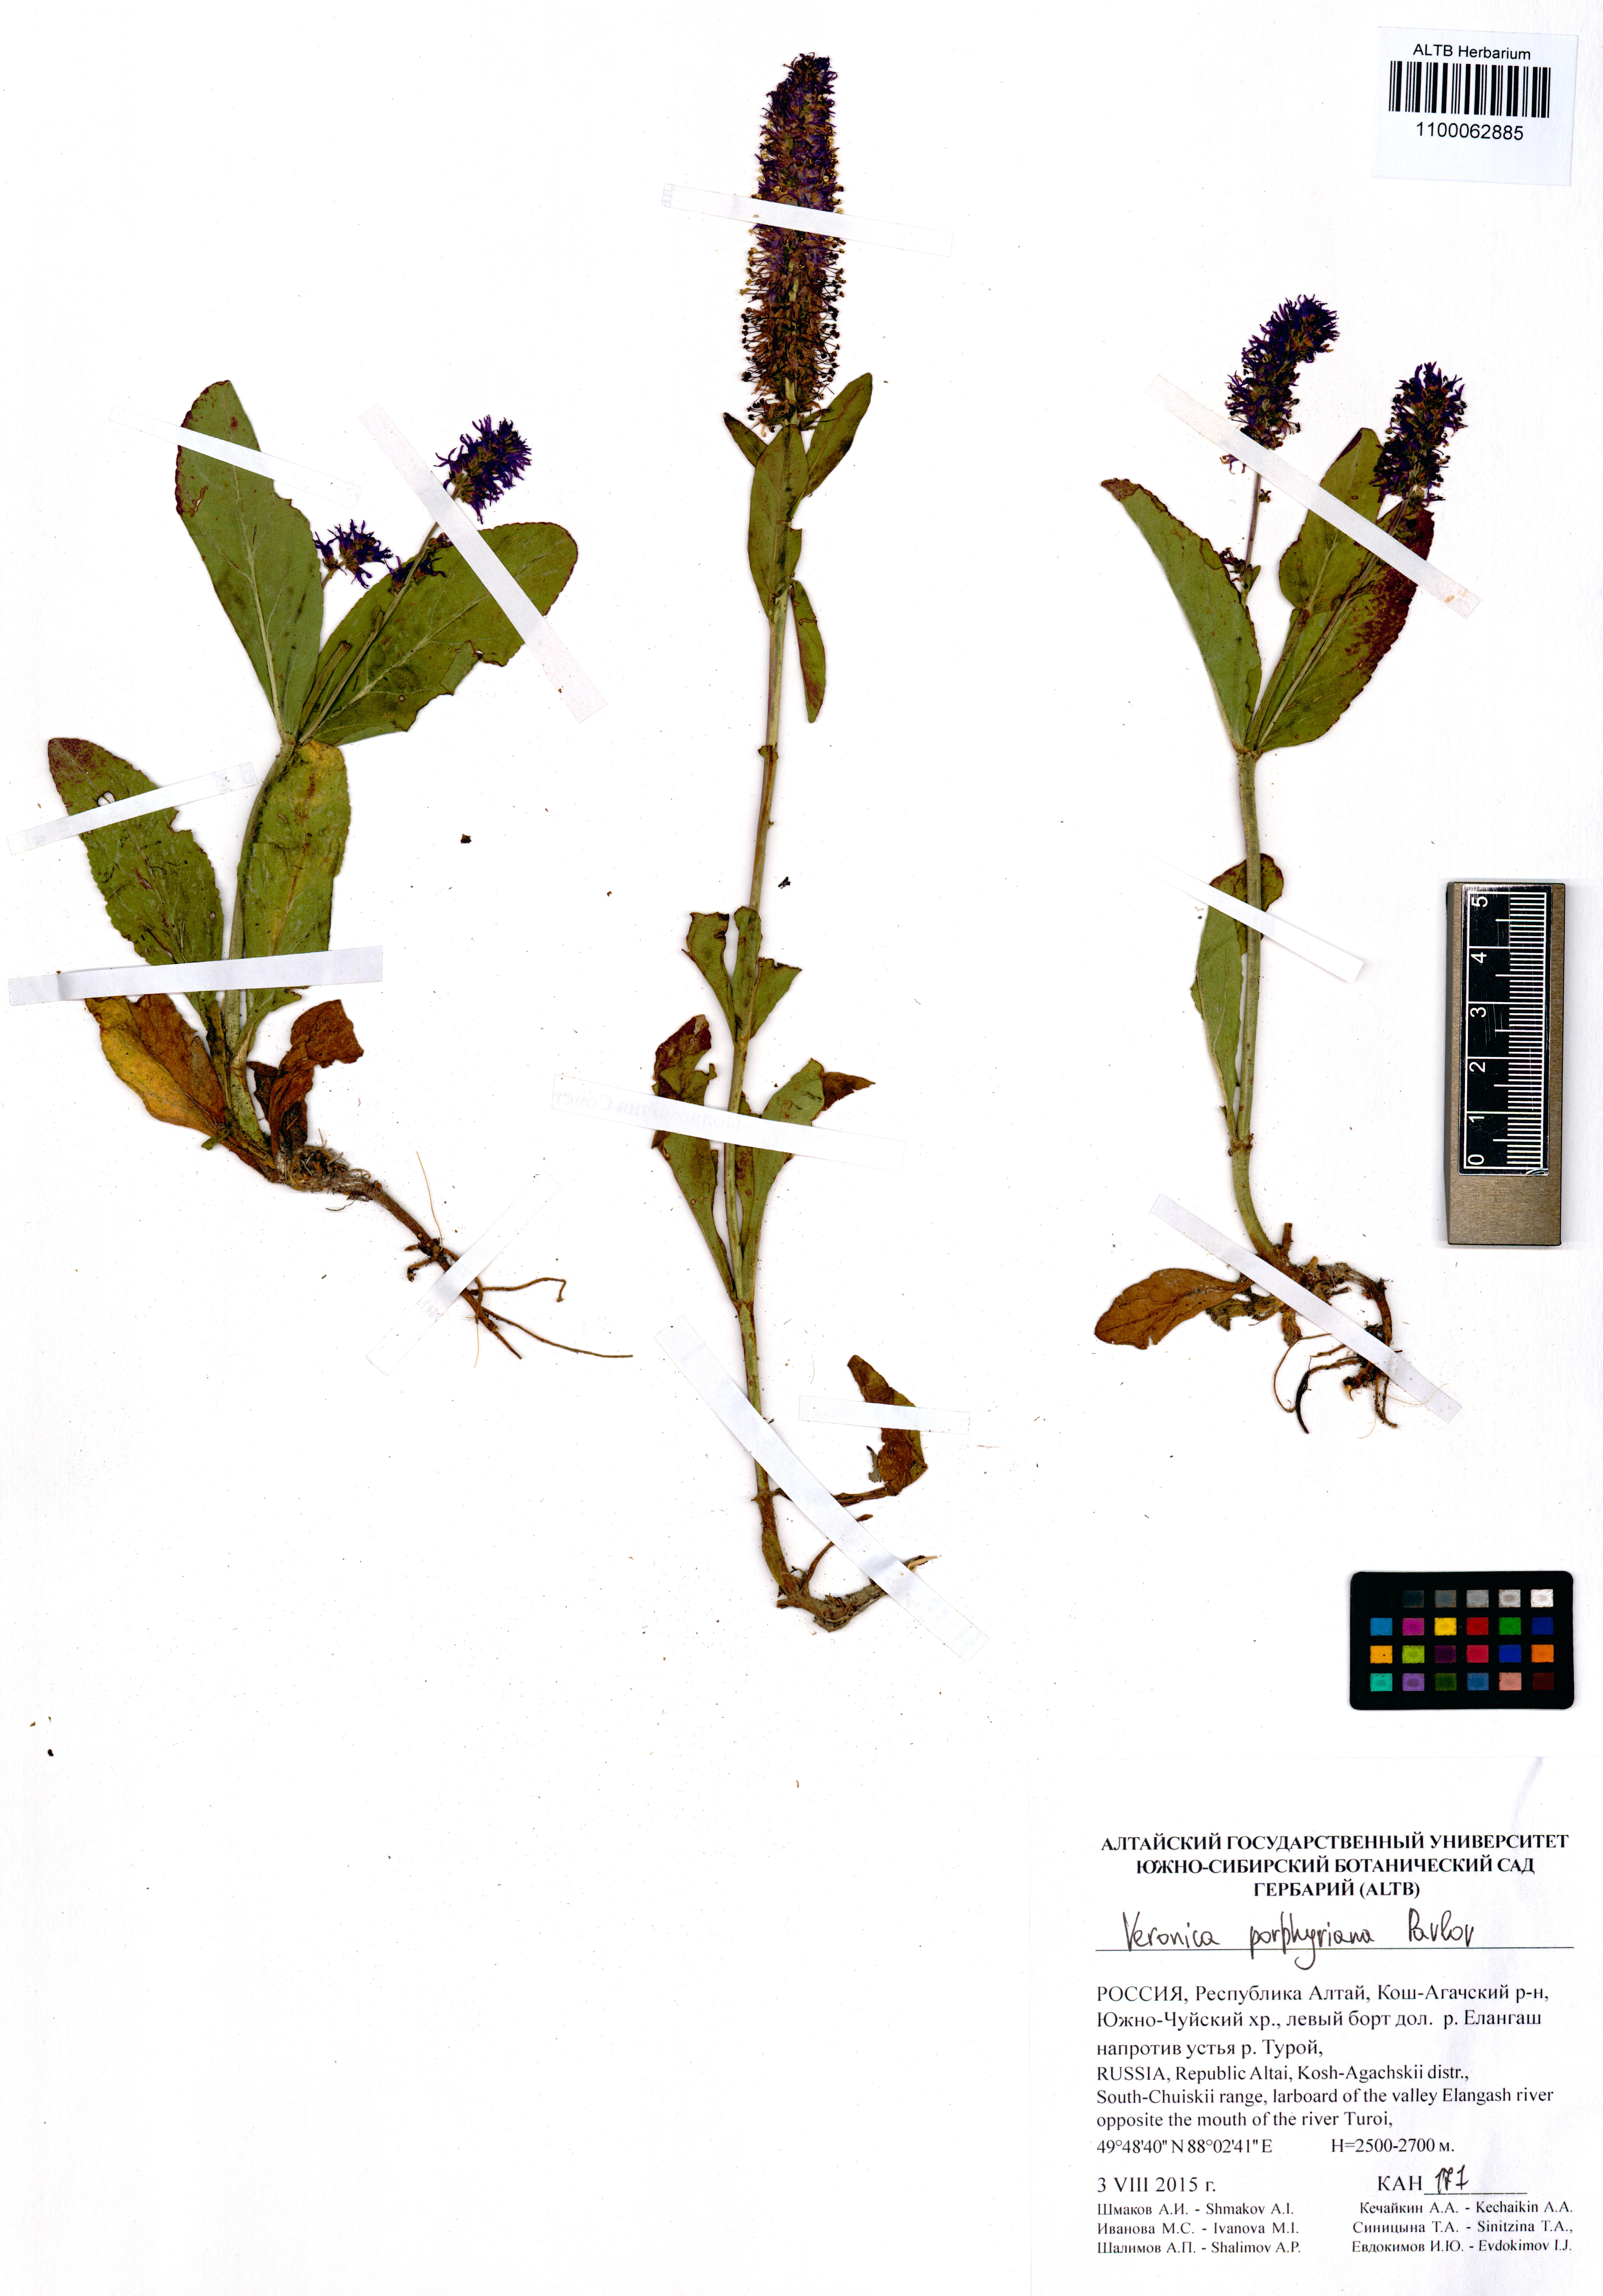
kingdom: Plantae
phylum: Tracheophyta
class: Magnoliopsida
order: Lamiales
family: Plantaginaceae
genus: Veronica
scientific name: Veronica porphyriana
